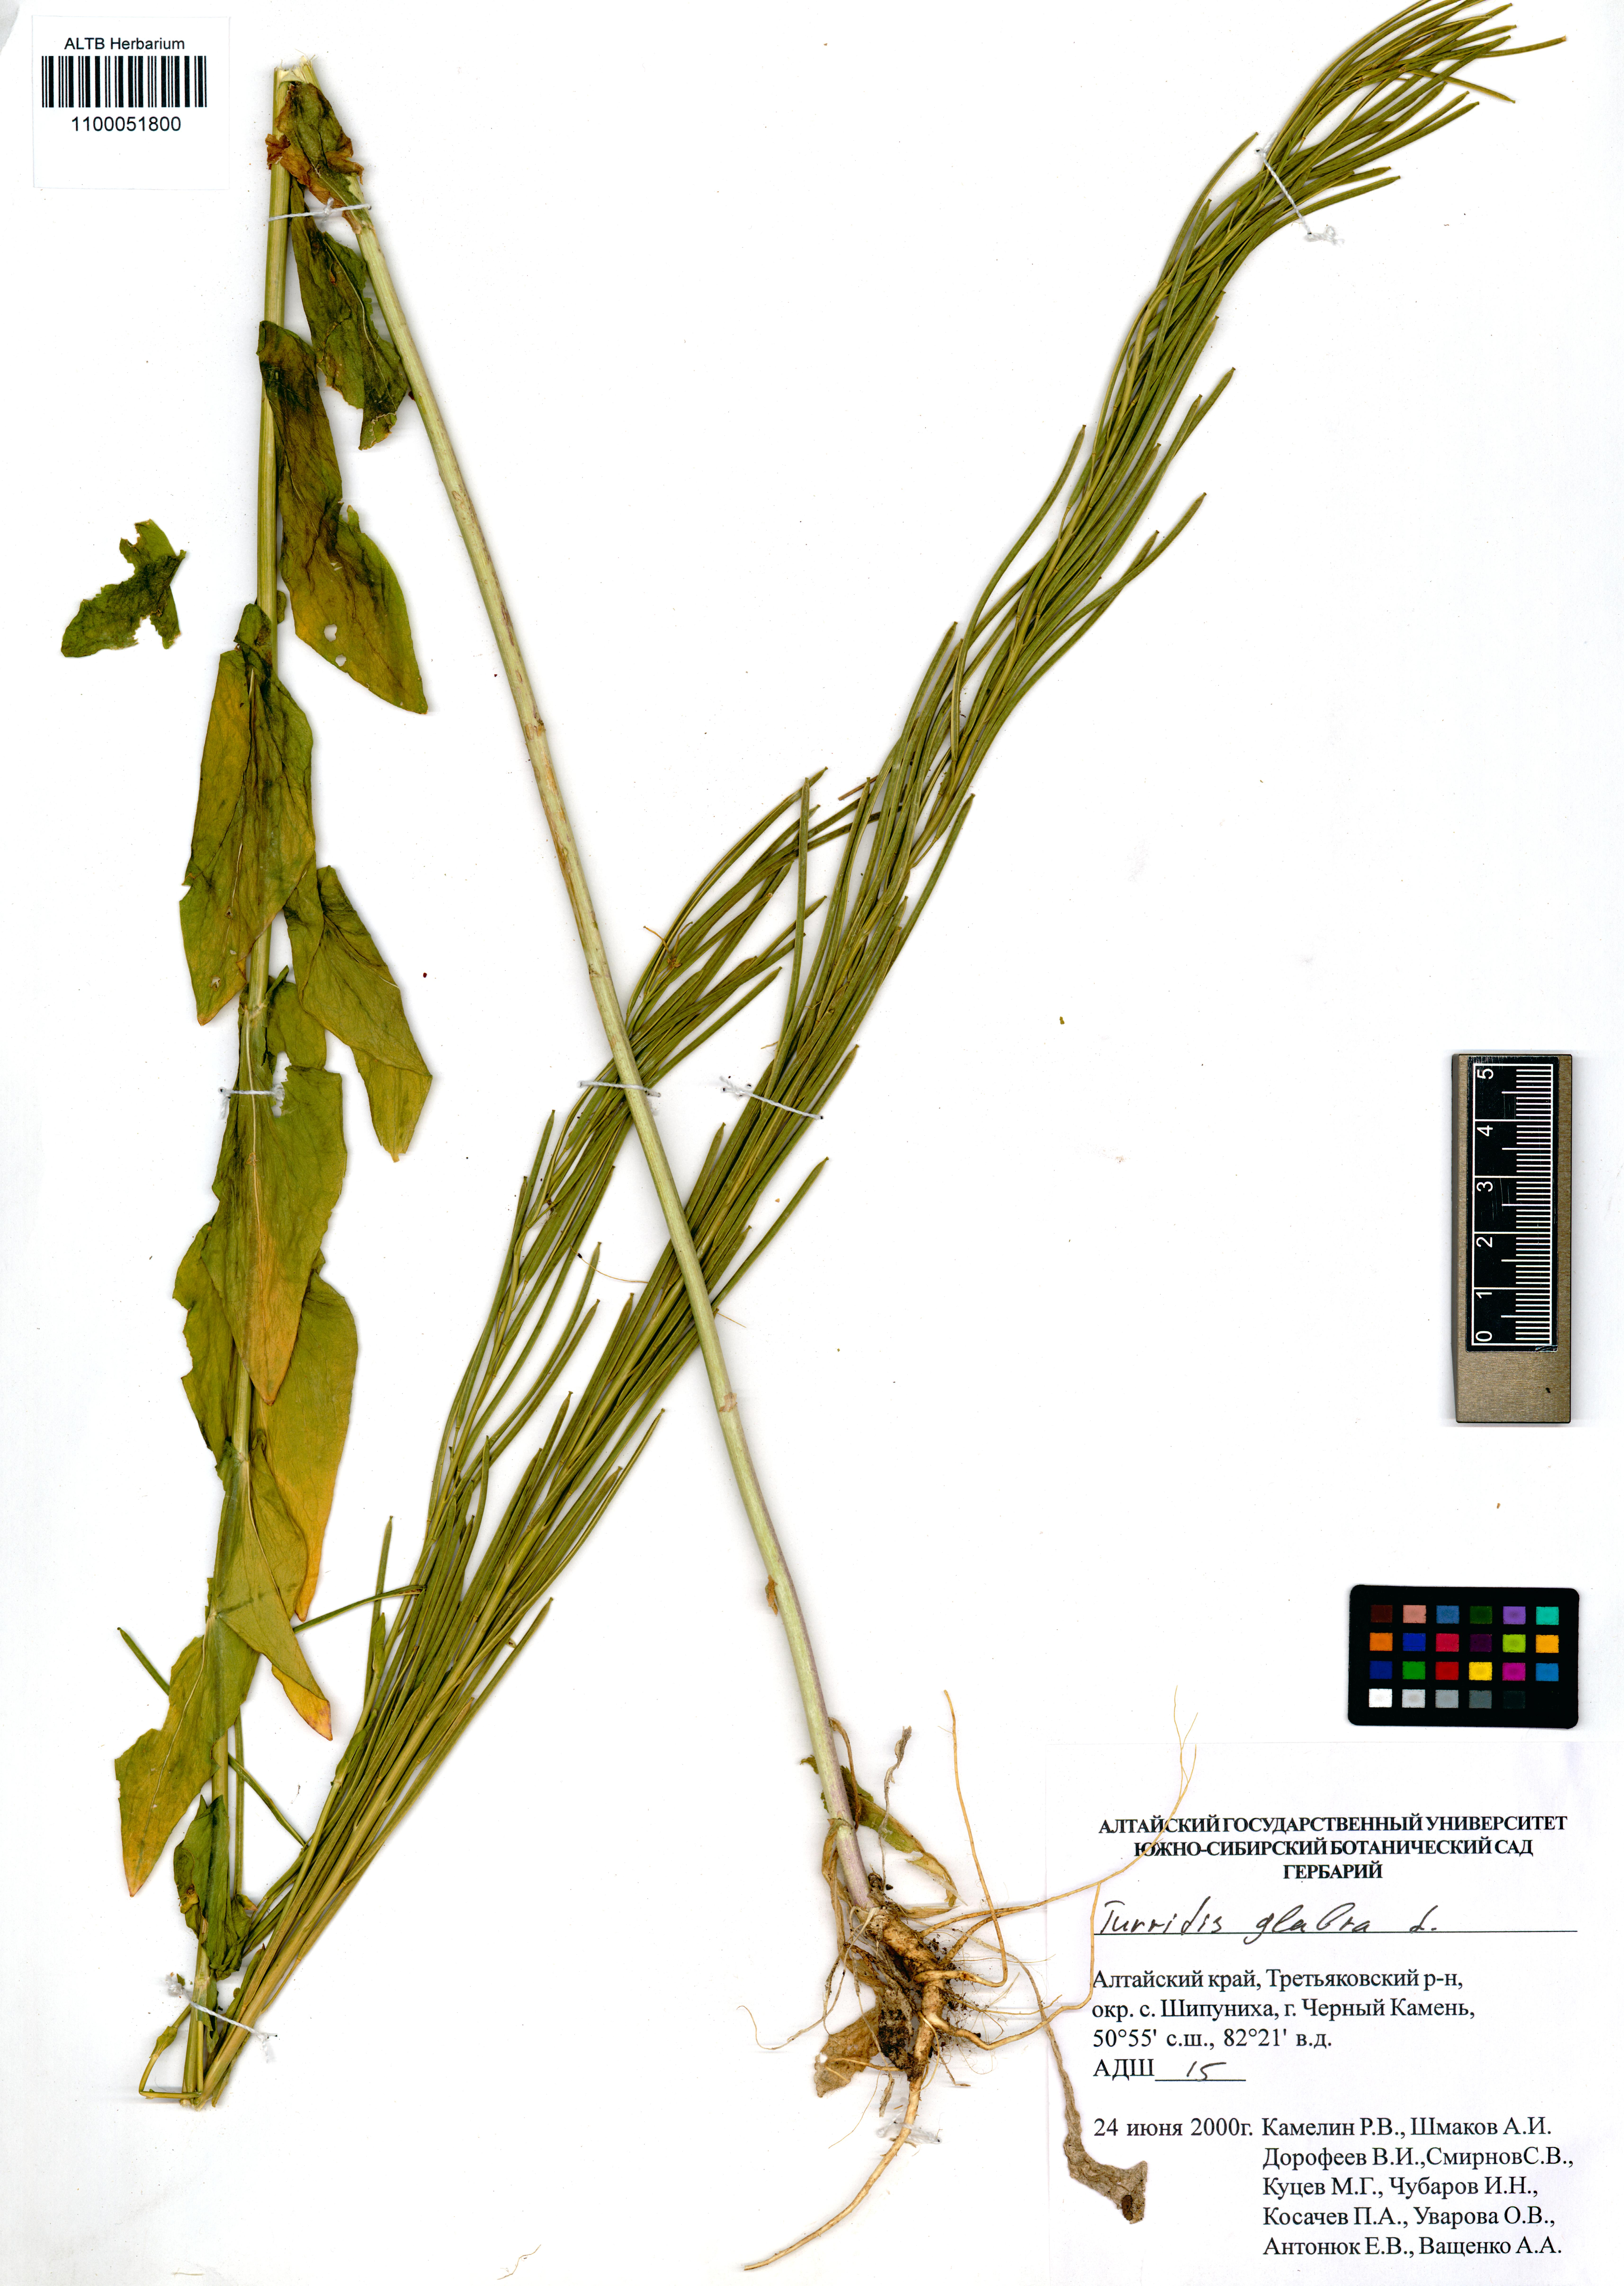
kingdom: Plantae
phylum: Tracheophyta
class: Magnoliopsida
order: Brassicales
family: Brassicaceae
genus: Turritis
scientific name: Turritis glabra
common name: Tower rockcress
